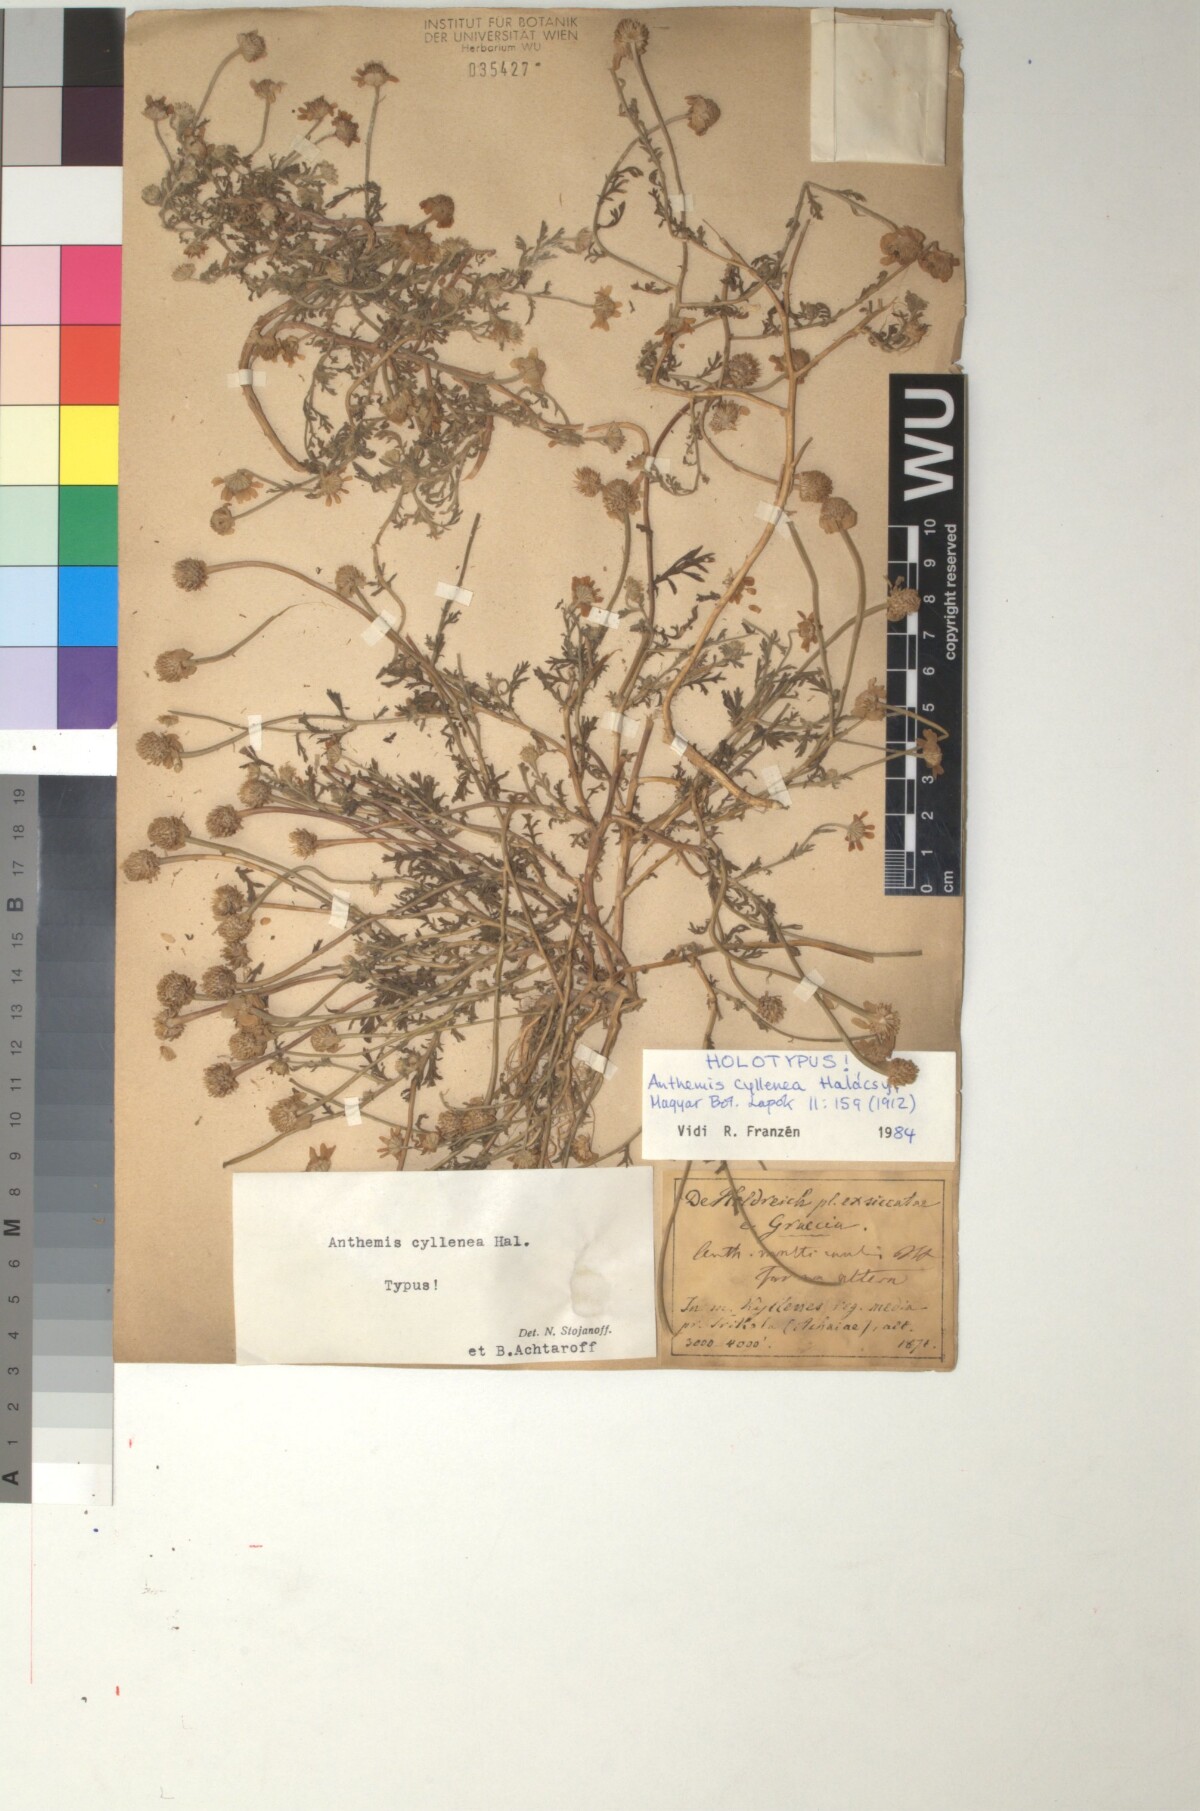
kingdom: Plantae
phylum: Tracheophyta
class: Magnoliopsida
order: Asterales
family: Asteraceae
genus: Anthemis
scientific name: Anthemis arvensis
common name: Corn chamomile
